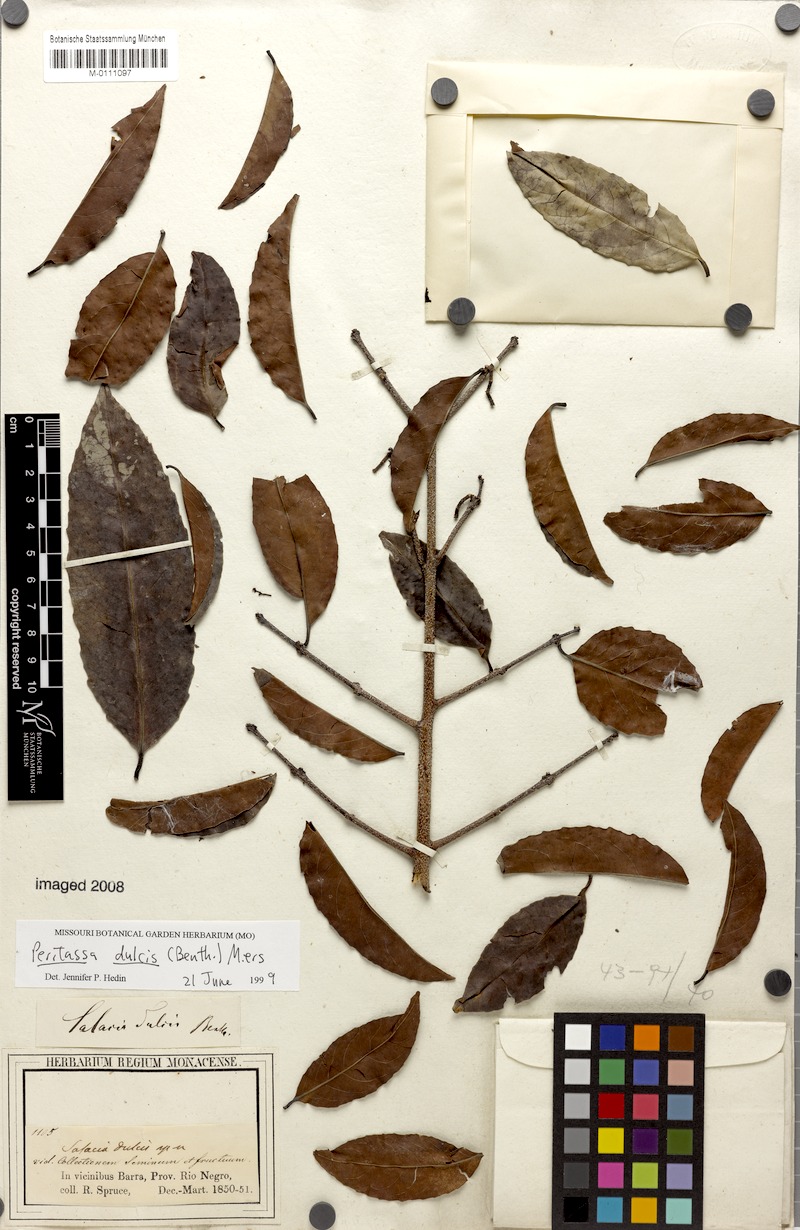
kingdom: Plantae
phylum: Tracheophyta
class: Magnoliopsida
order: Celastrales
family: Celastraceae
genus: Peritassa
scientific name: Peritassa dulcis
